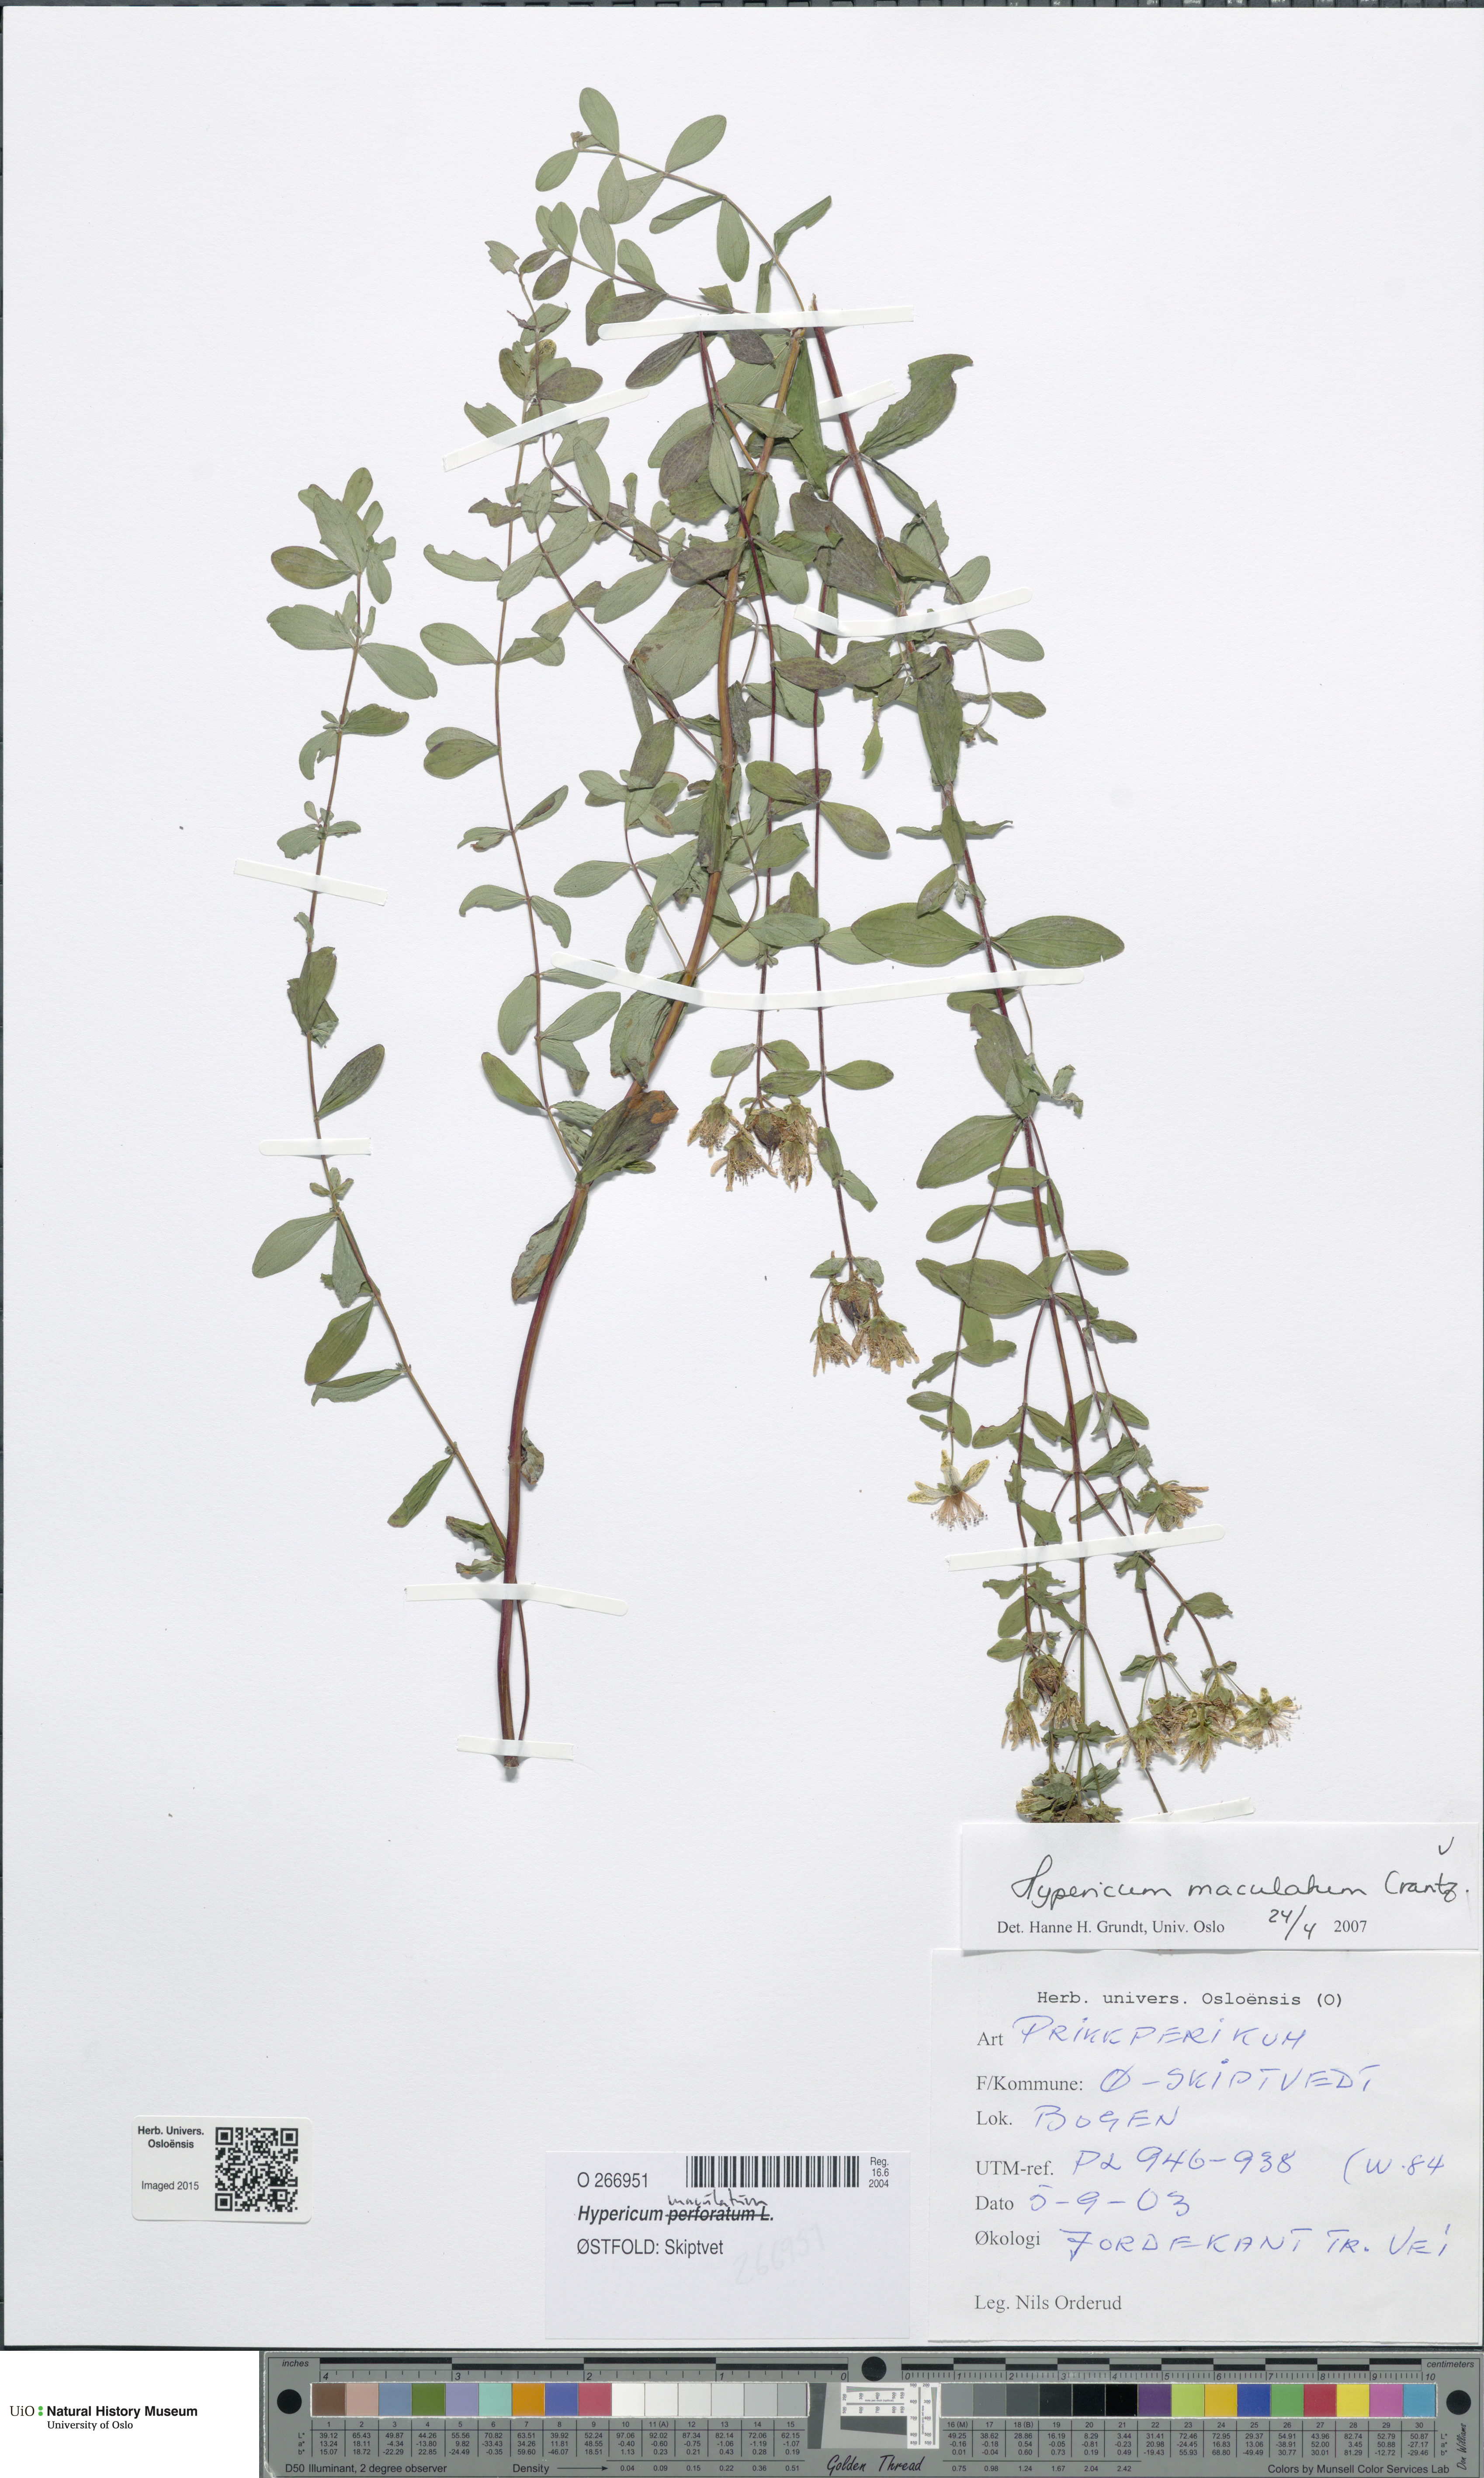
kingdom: Plantae
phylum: Tracheophyta
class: Magnoliopsida
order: Malpighiales
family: Hypericaceae
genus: Hypericum
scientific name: Hypericum maculatum
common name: Imperforate st. john's-wort
